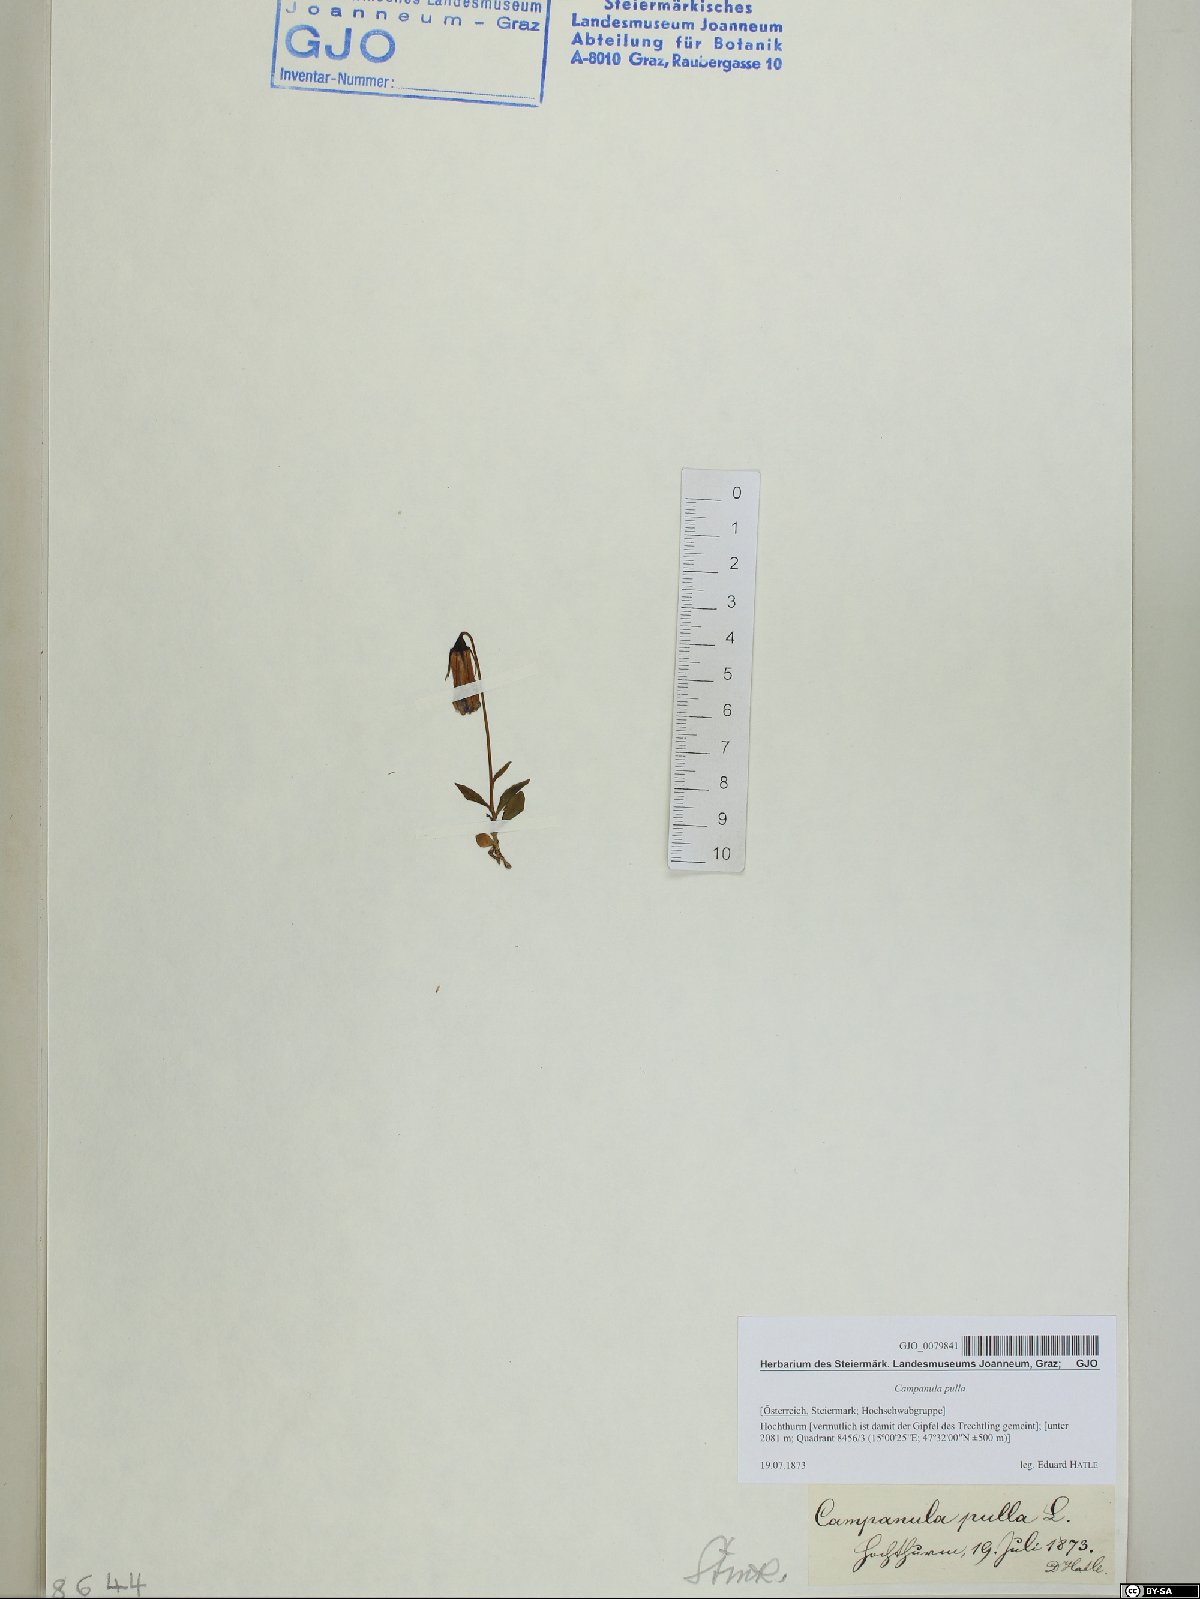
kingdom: Plantae
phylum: Tracheophyta
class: Magnoliopsida
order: Asterales
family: Campanulaceae
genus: Campanula
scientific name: Campanula pulla
